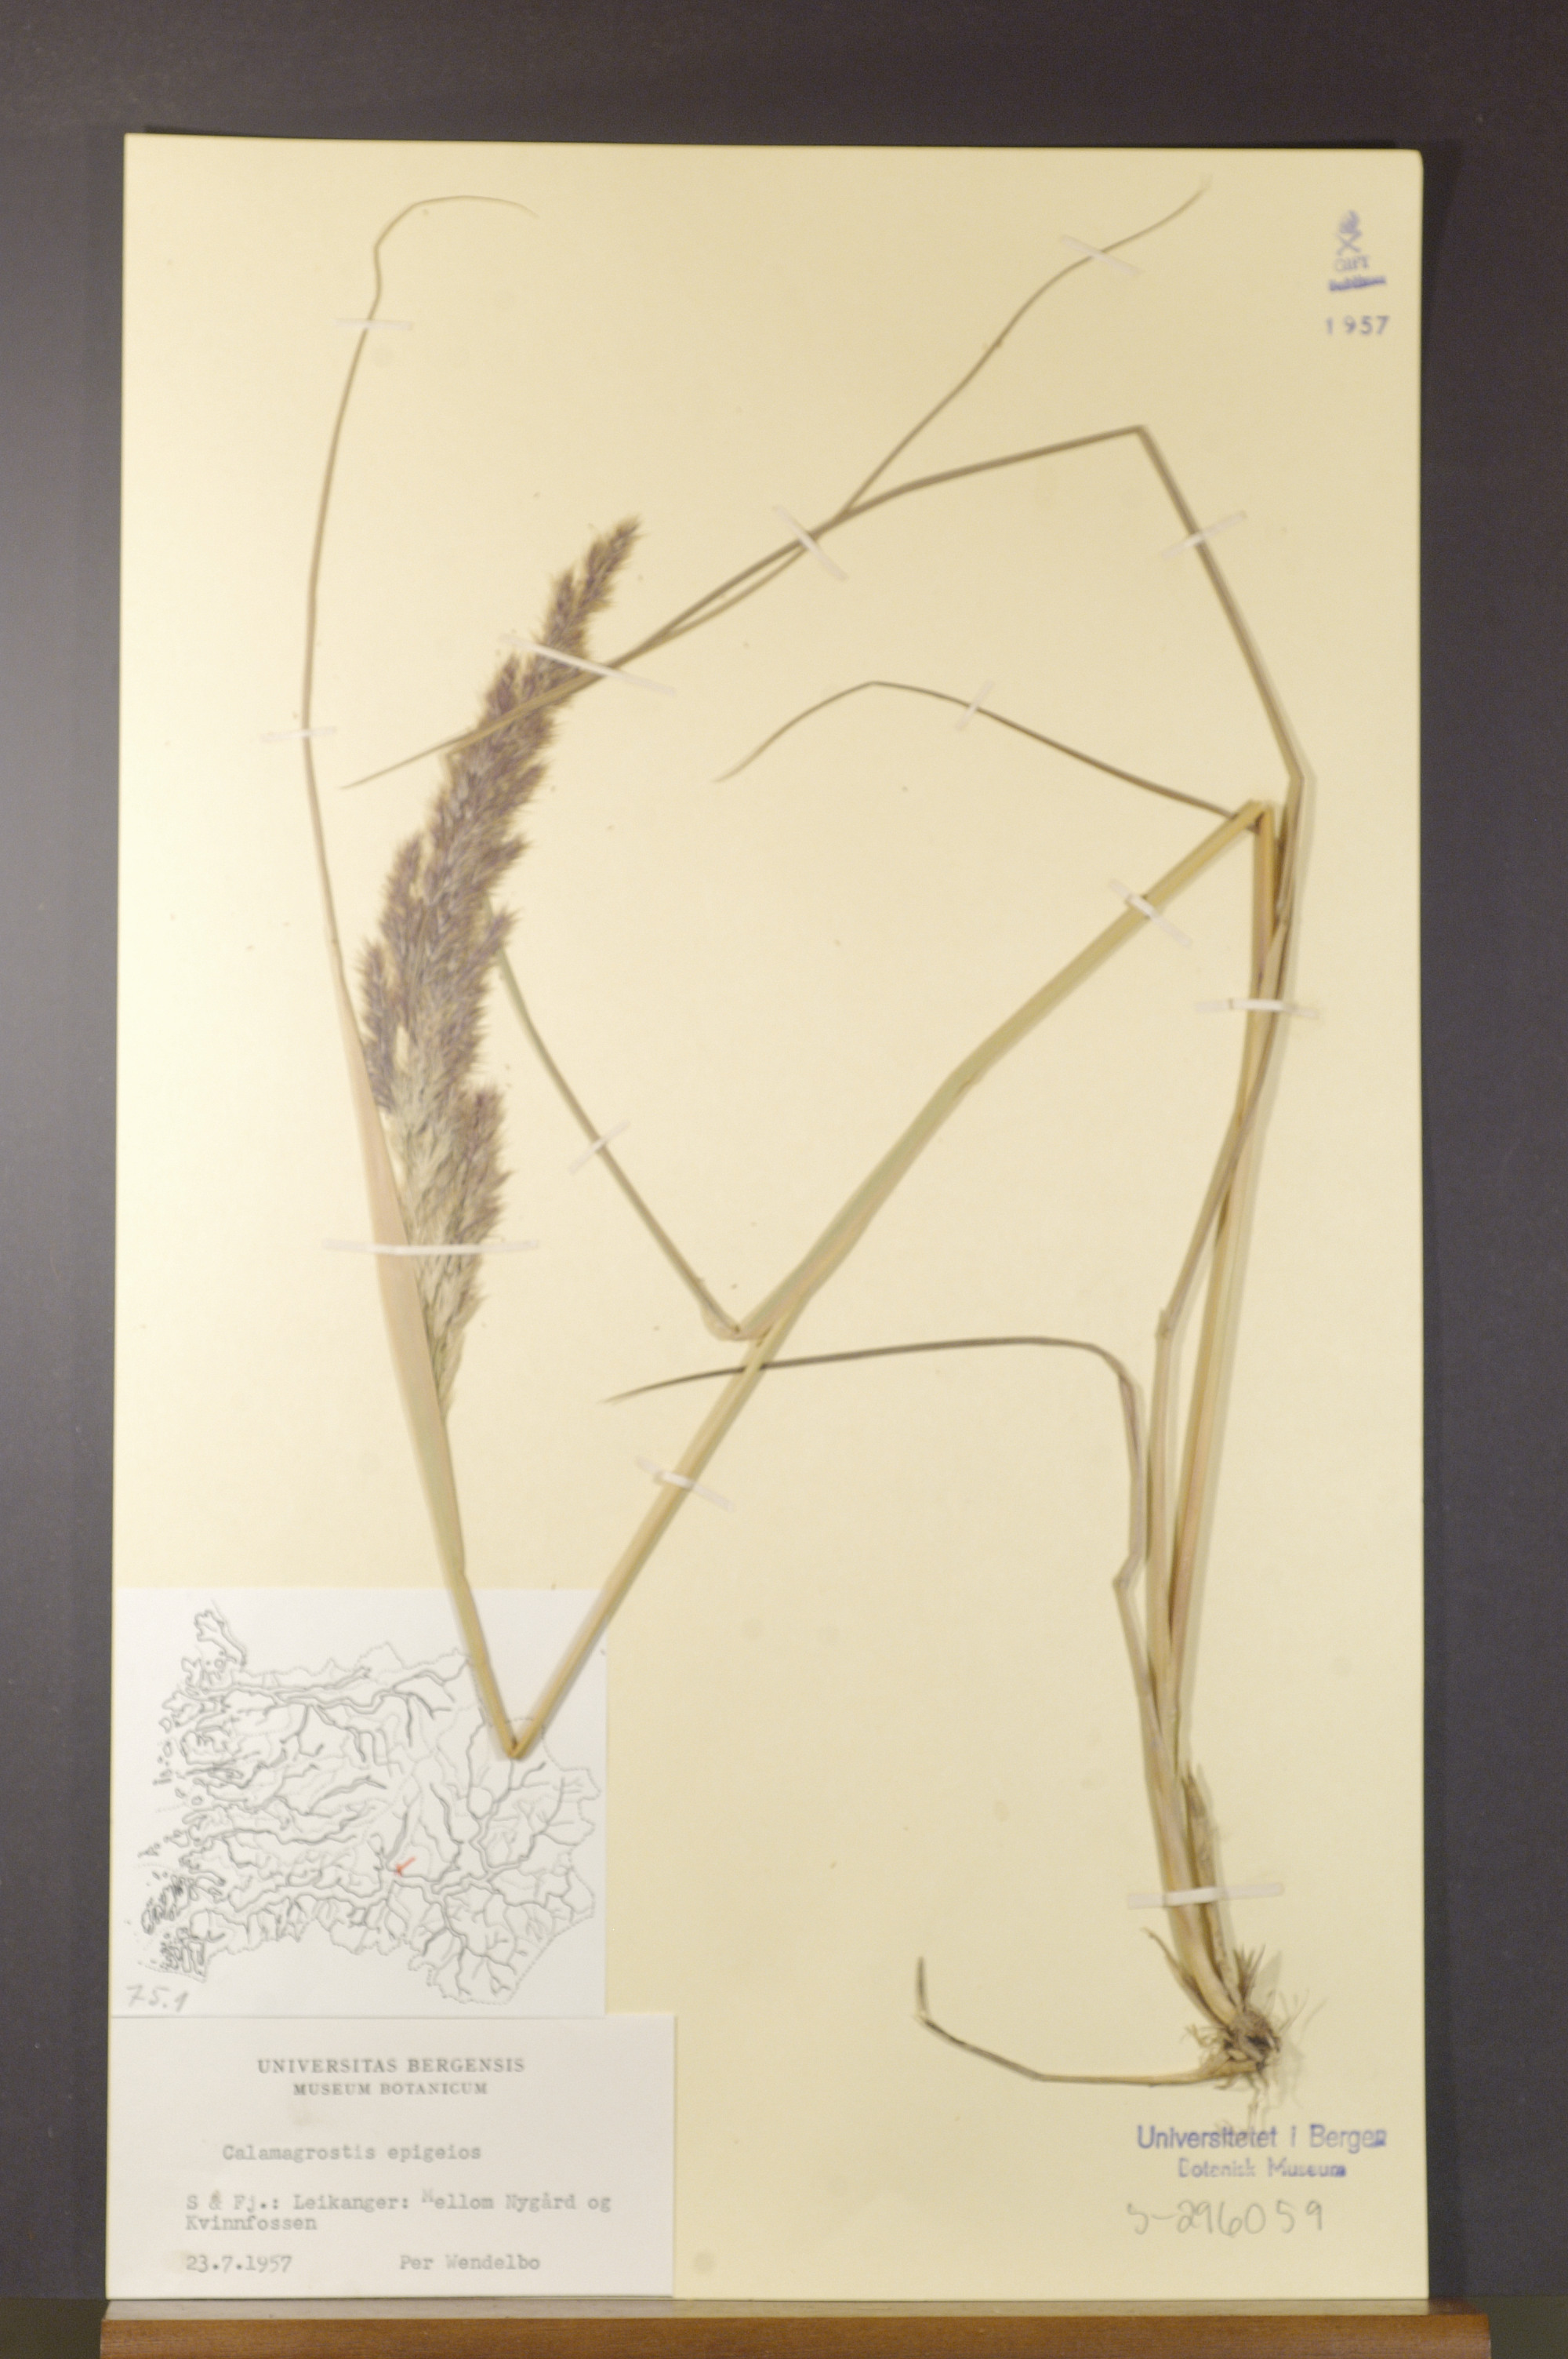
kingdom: Plantae
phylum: Tracheophyta
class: Liliopsida
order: Poales
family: Poaceae
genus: Calamagrostis
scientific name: Calamagrostis epigejos
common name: Wood small-reed
